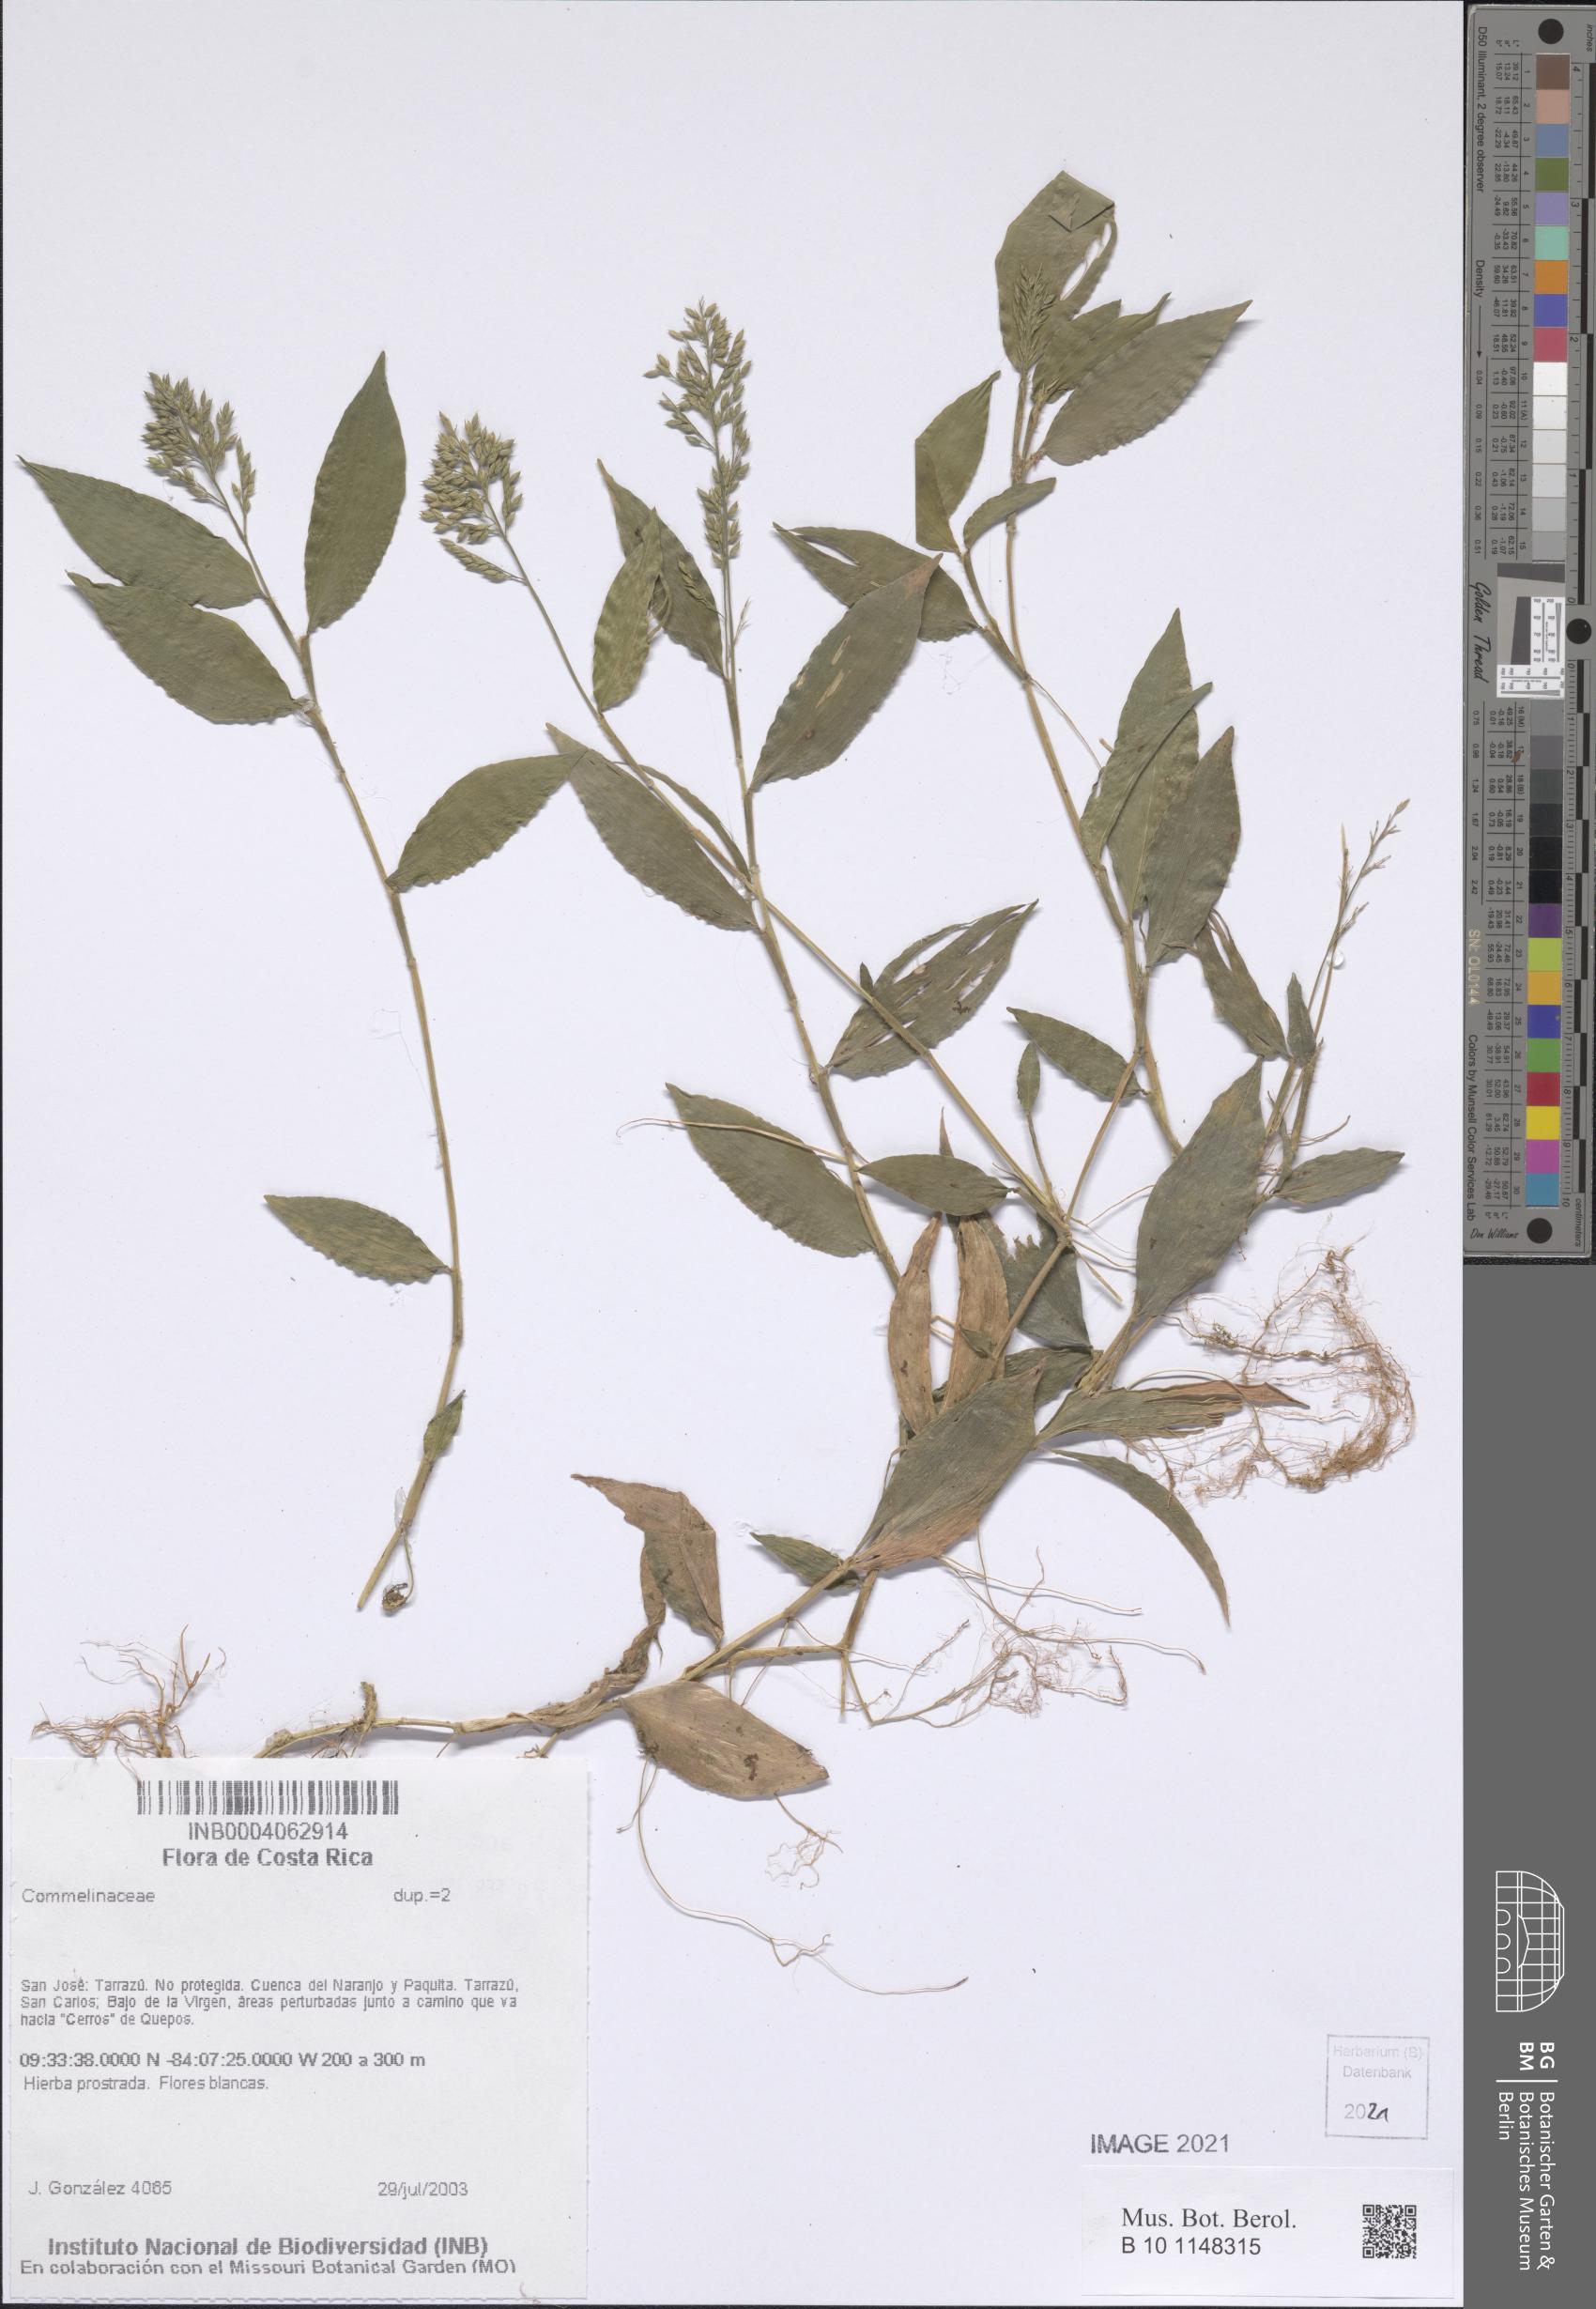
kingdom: Plantae
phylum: Tracheophyta
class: Liliopsida
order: Commelinales
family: Commelinaceae
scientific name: Commelinaceae
